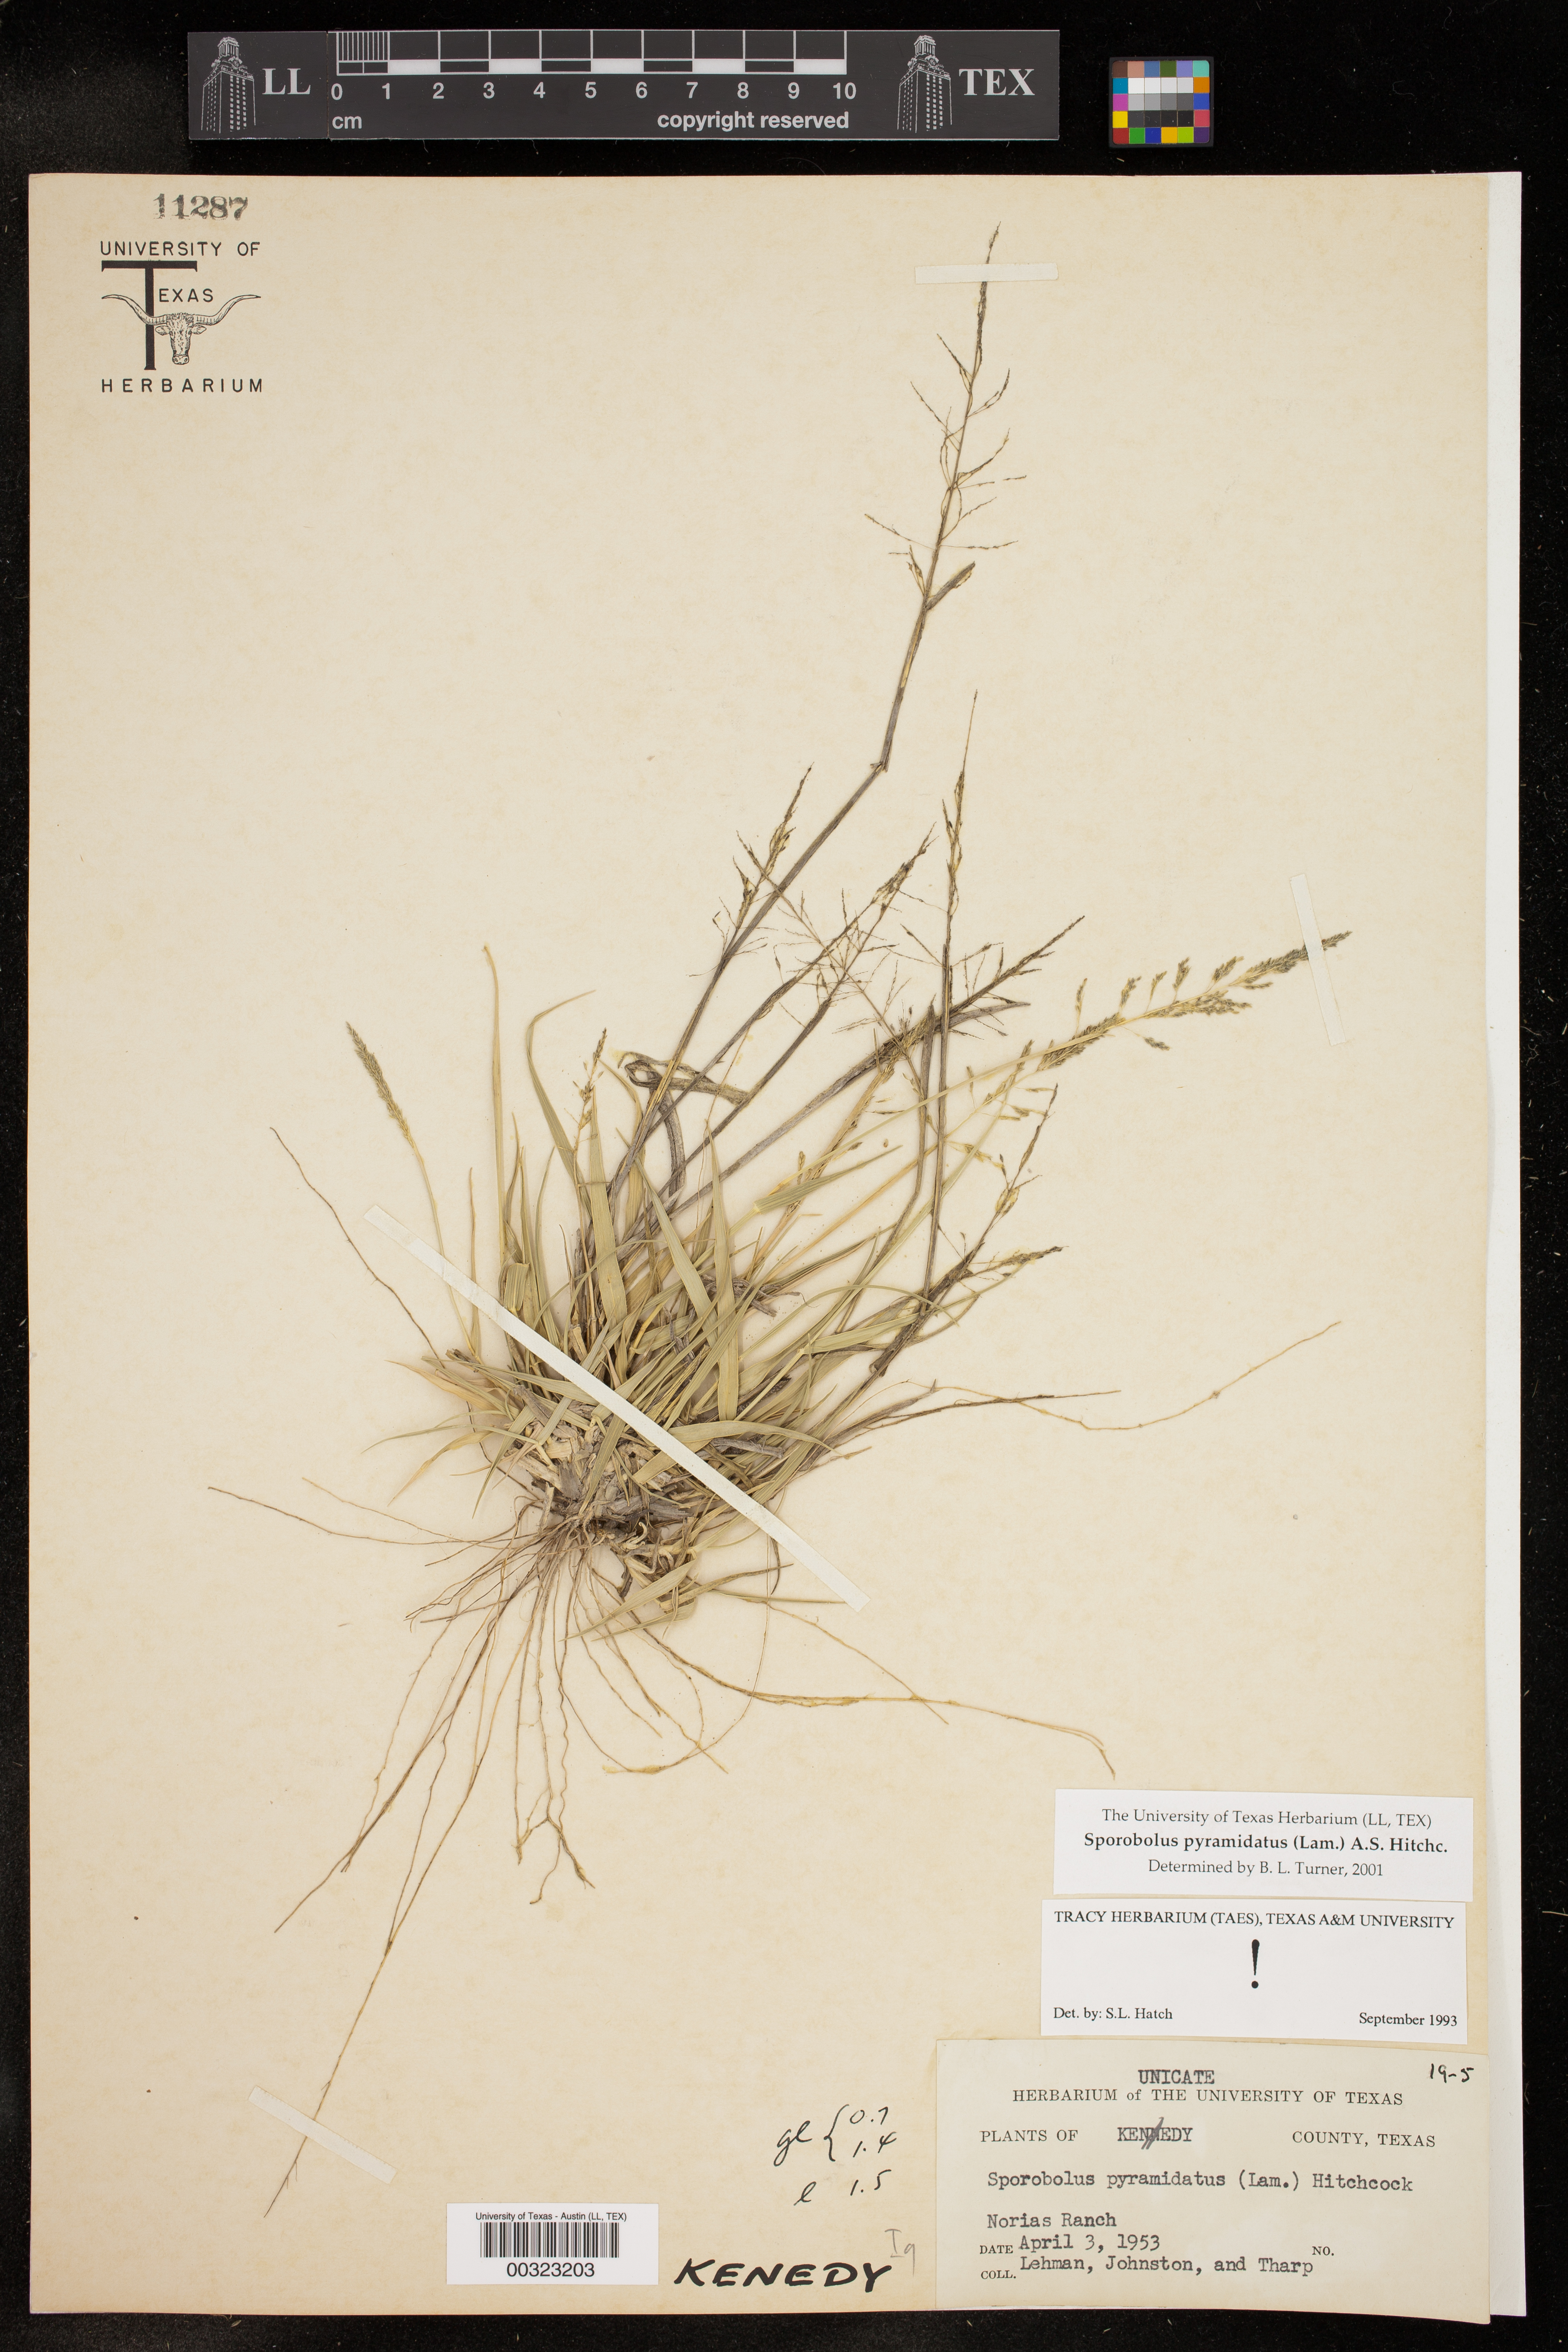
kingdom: Plantae
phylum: Tracheophyta
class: Liliopsida
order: Poales
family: Poaceae
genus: Sporobolus
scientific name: Sporobolus pyramidatus
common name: Whorled dropseed
